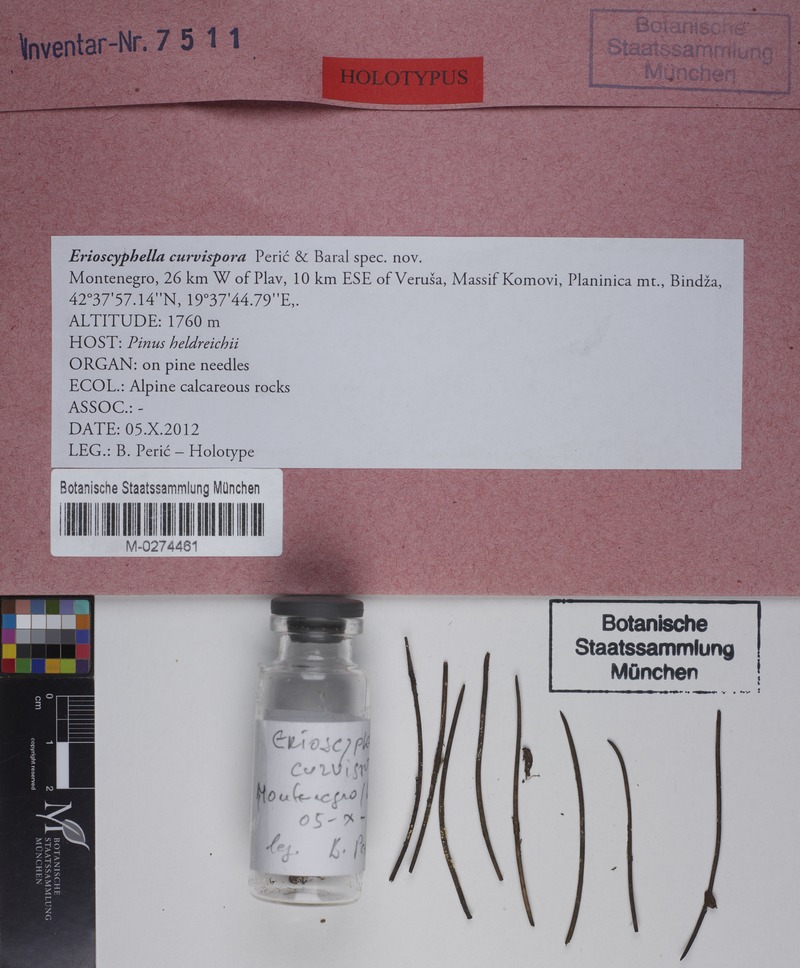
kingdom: Fungi
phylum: Ascomycota
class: Leotiomycetes
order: Helotiales
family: Lachnaceae
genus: Erioscyphella
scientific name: Erioscyphella curvispora
